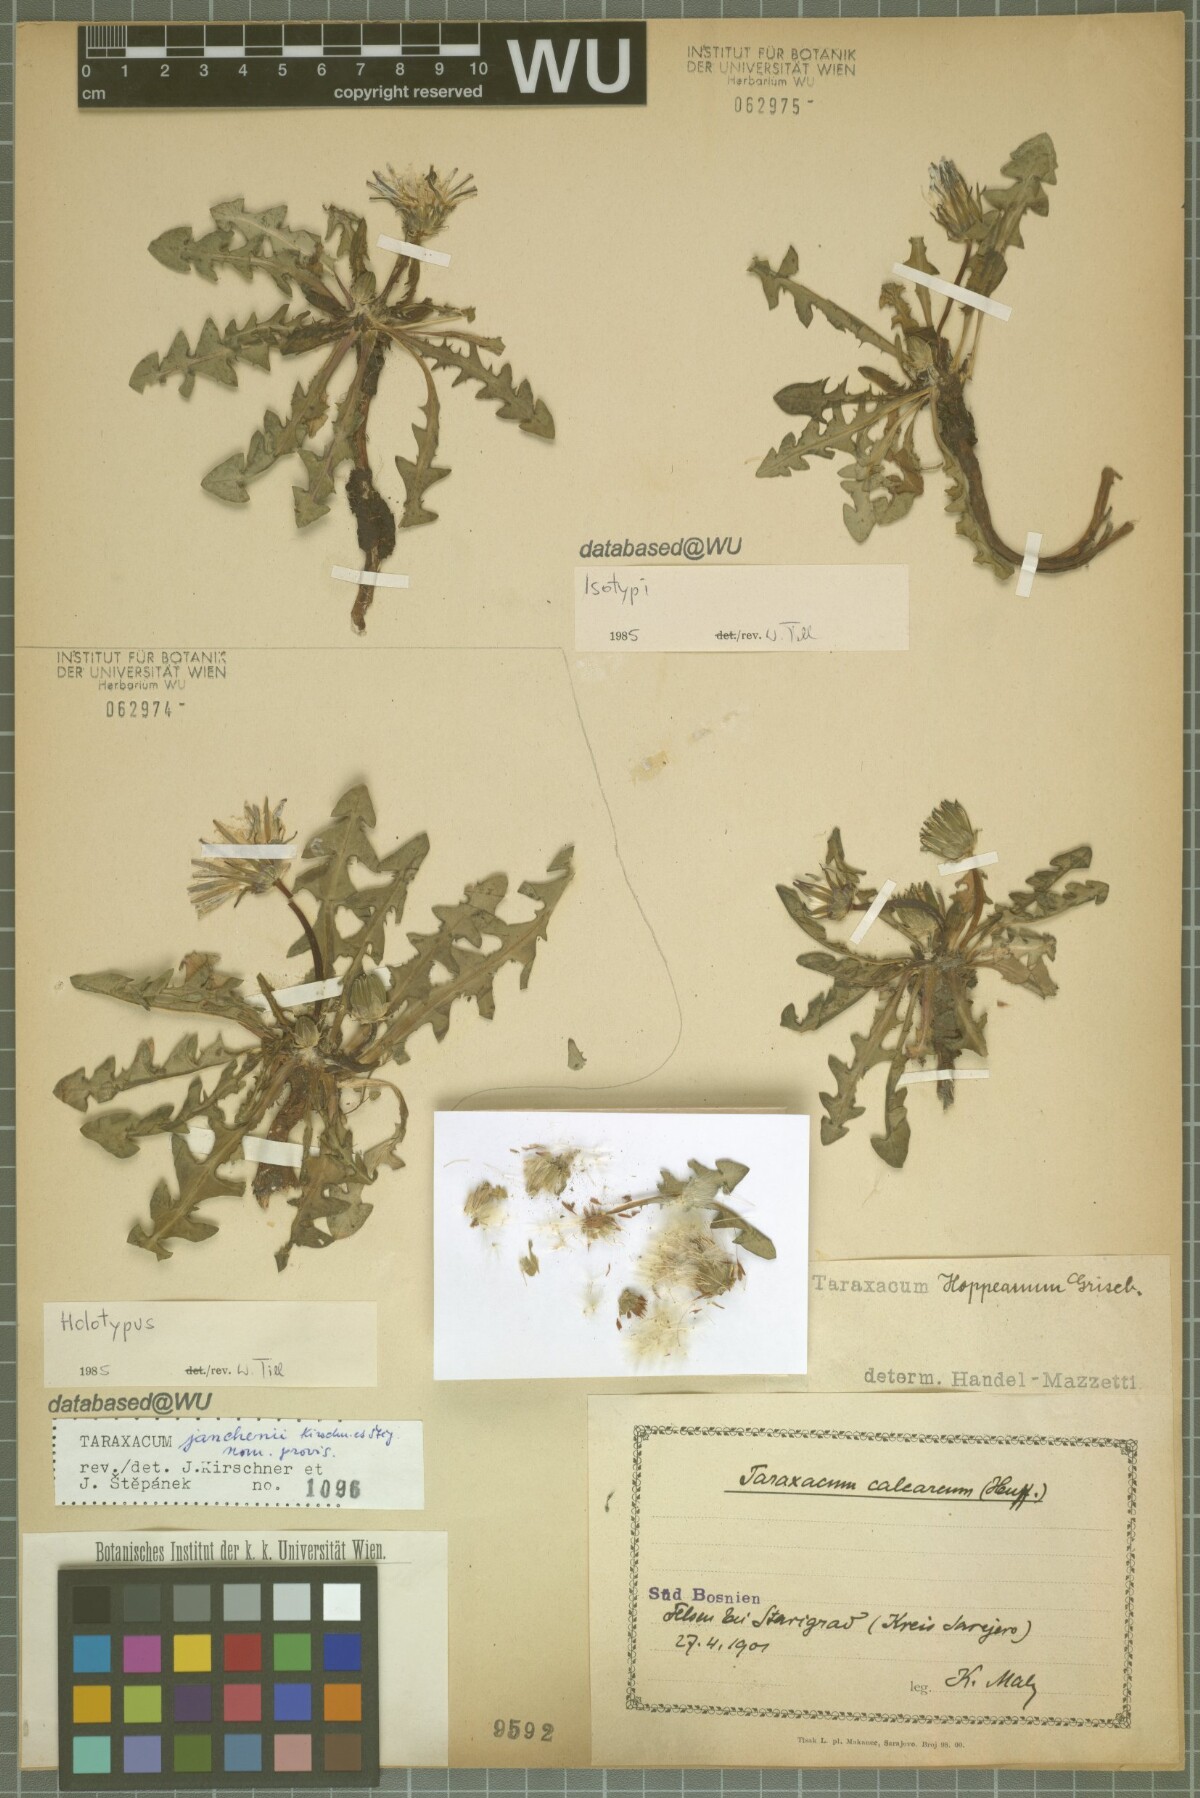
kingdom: Plantae
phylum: Tracheophyta
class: Magnoliopsida
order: Asterales
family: Asteraceae
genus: Taraxacum
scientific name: Taraxacum janchenii
